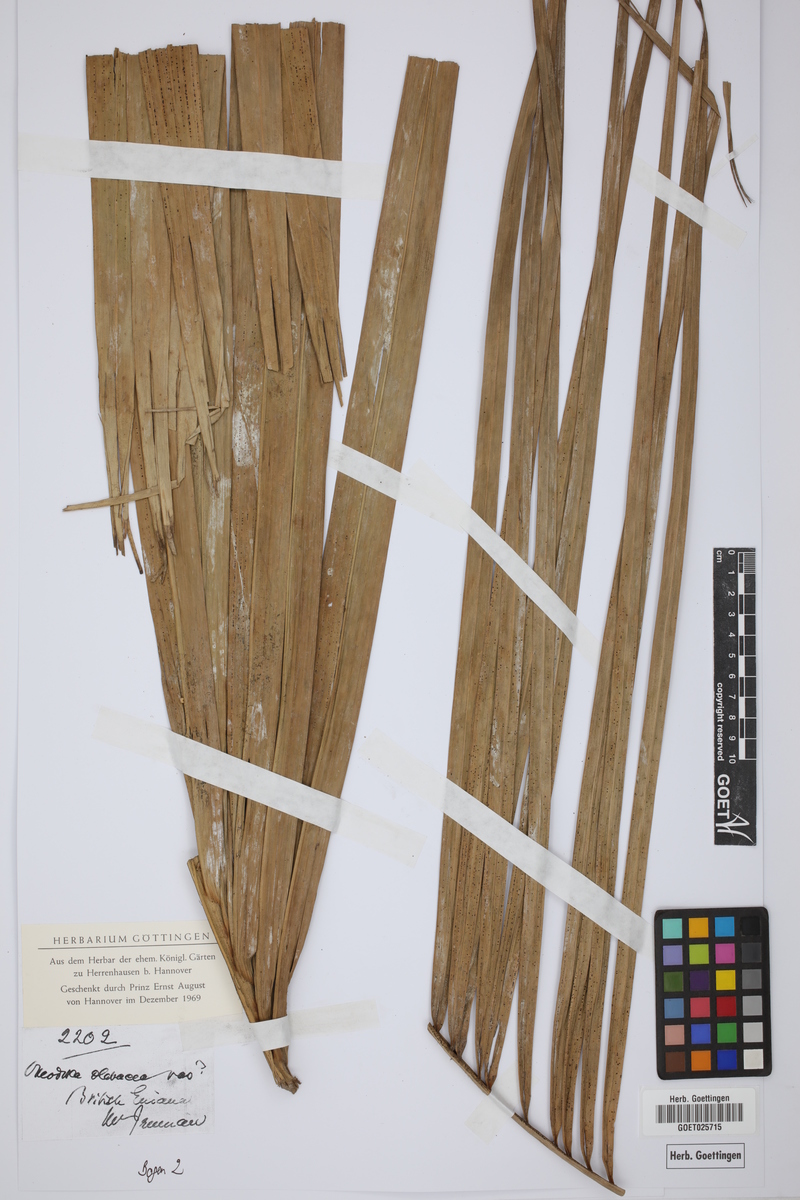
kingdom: Plantae
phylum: Tracheophyta
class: Liliopsida
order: Arecales
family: Arecaceae
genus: Roystonea
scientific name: Roystonea oleracea
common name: South american royal palm
